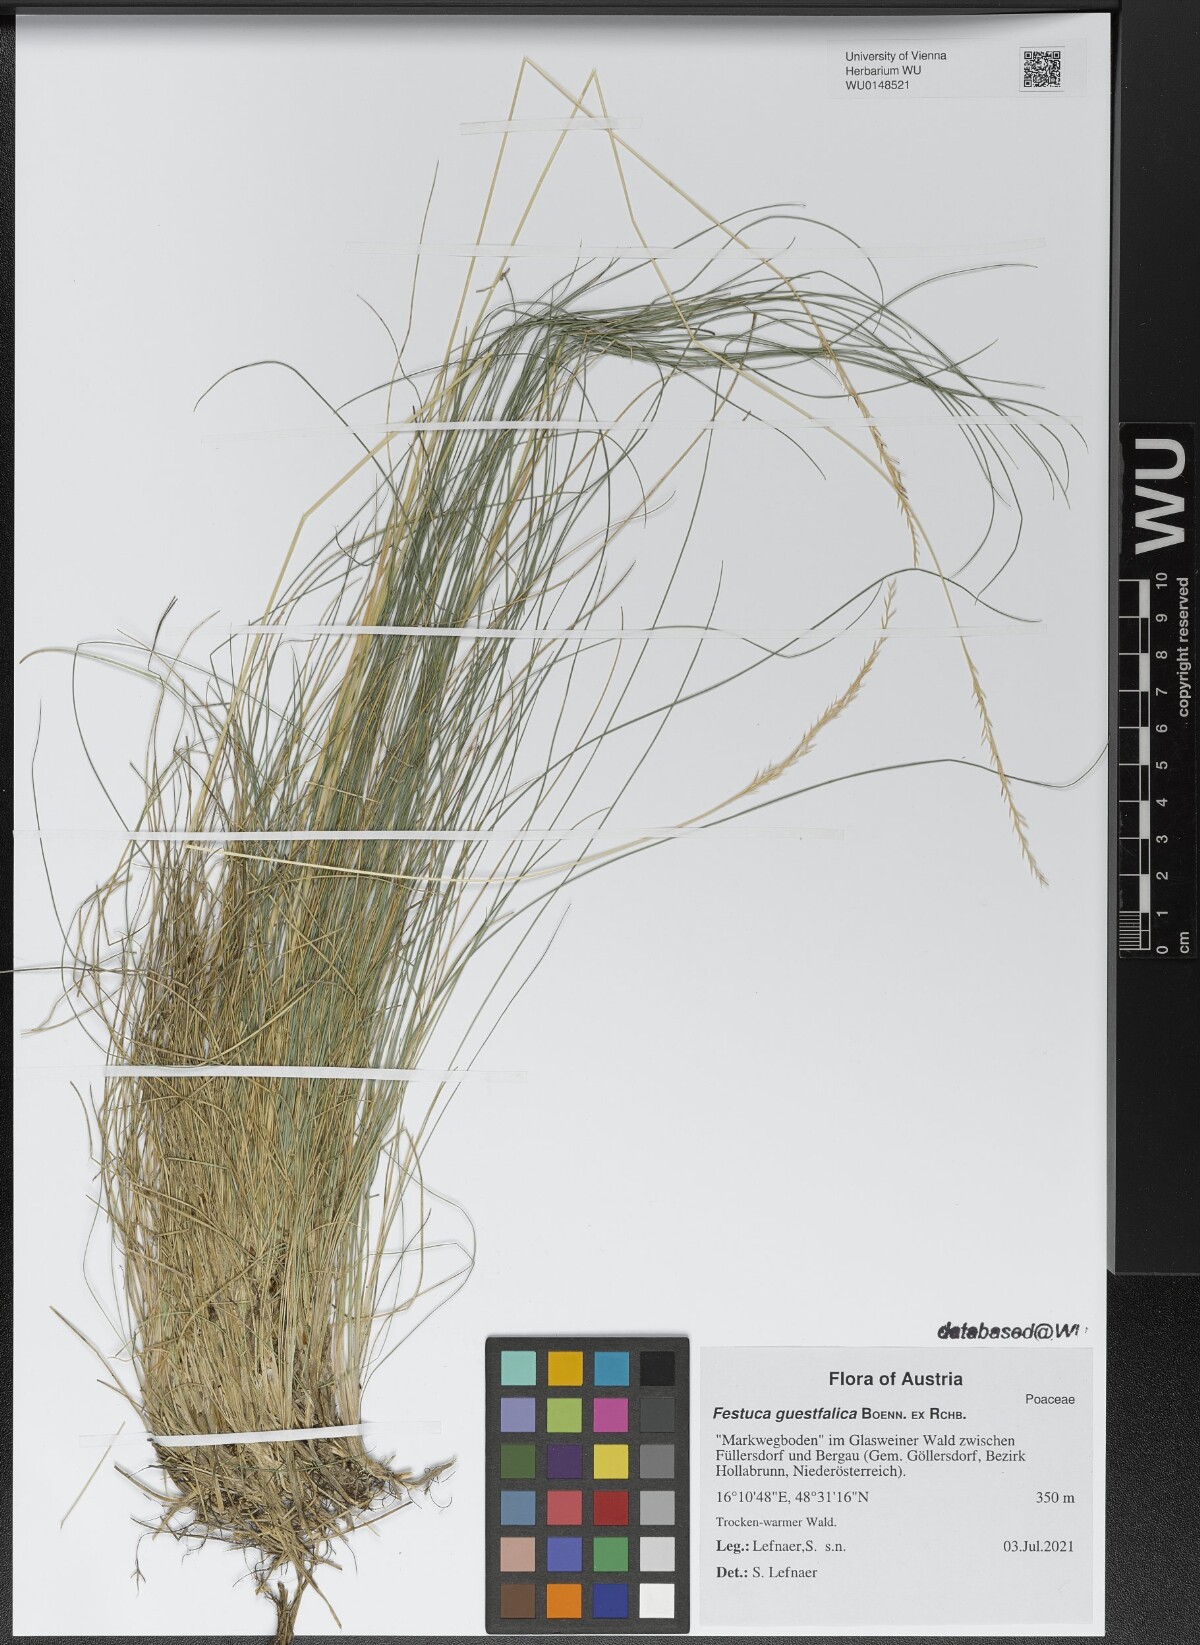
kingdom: Plantae
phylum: Tracheophyta
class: Liliopsida
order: Poales
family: Poaceae
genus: Festuca
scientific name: Festuca guestfalica
